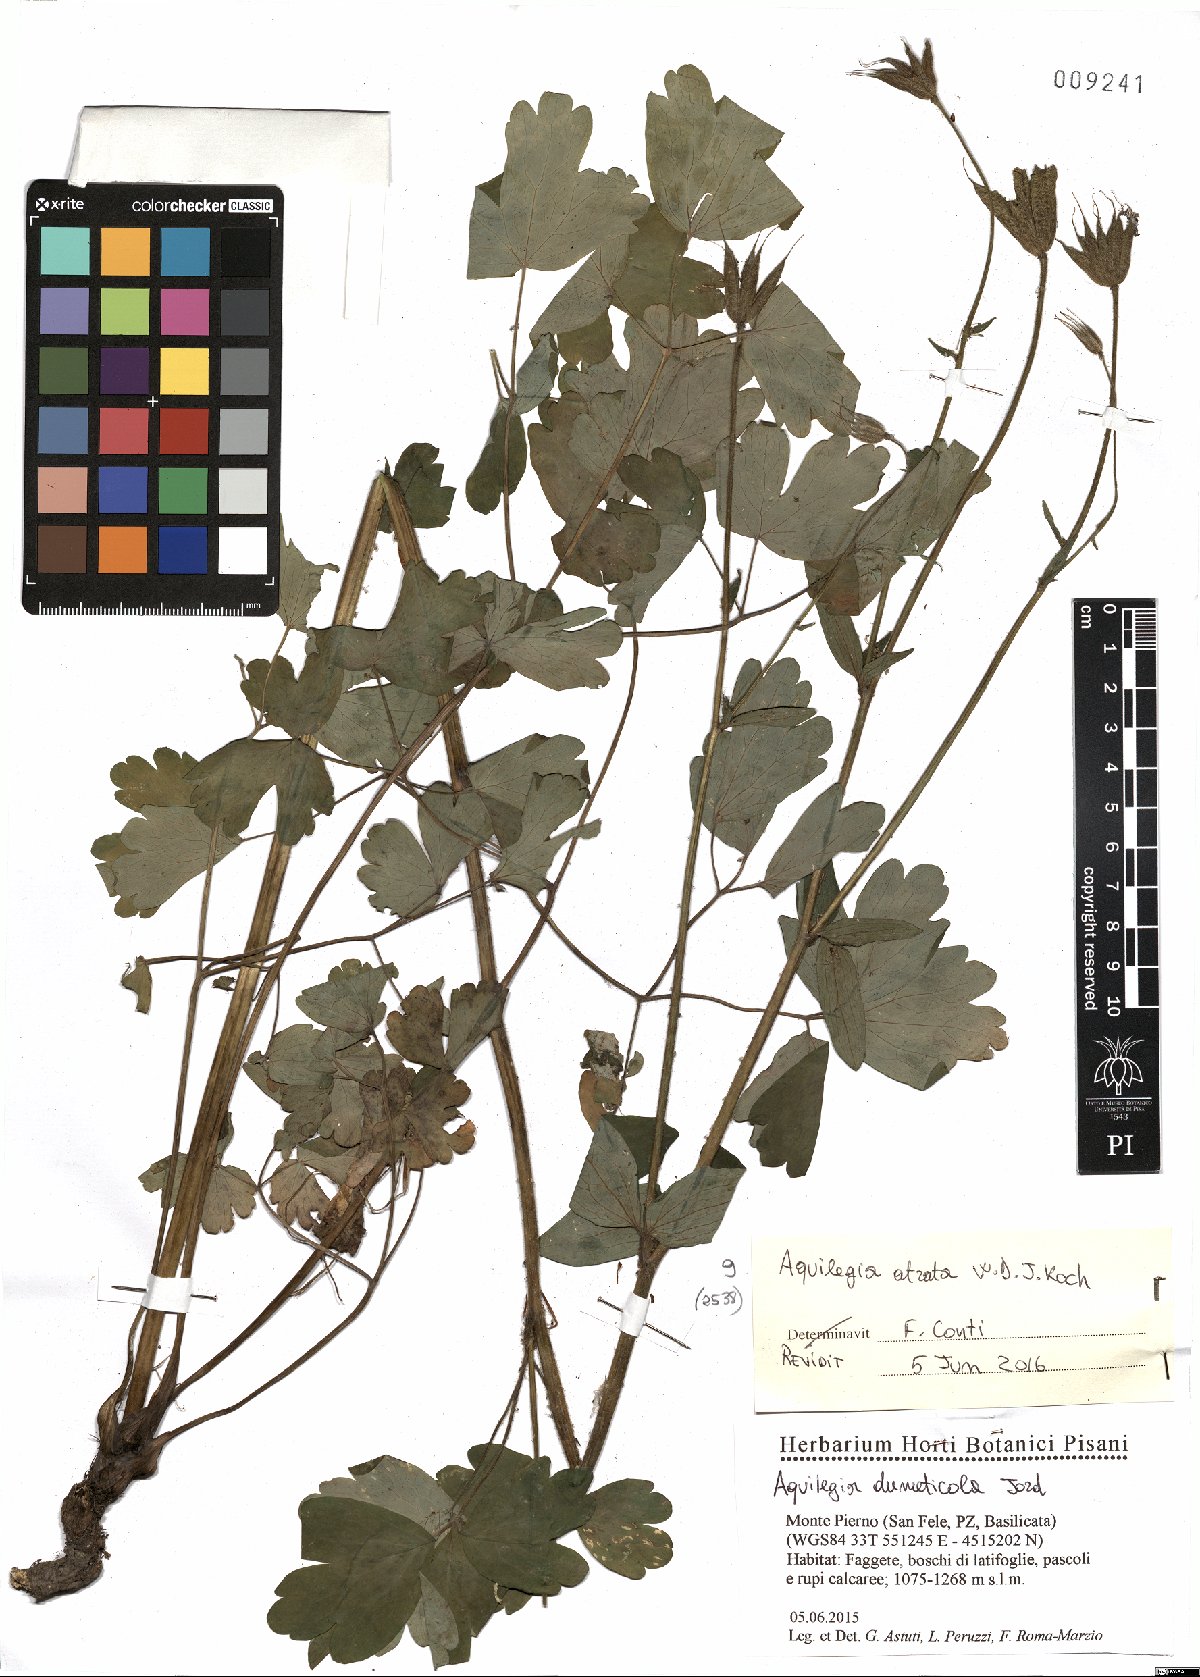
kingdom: Plantae
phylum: Tracheophyta
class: Magnoliopsida
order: Ranunculales
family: Ranunculaceae
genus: Aquilegia
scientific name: Aquilegia atrata
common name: Dark columbine
